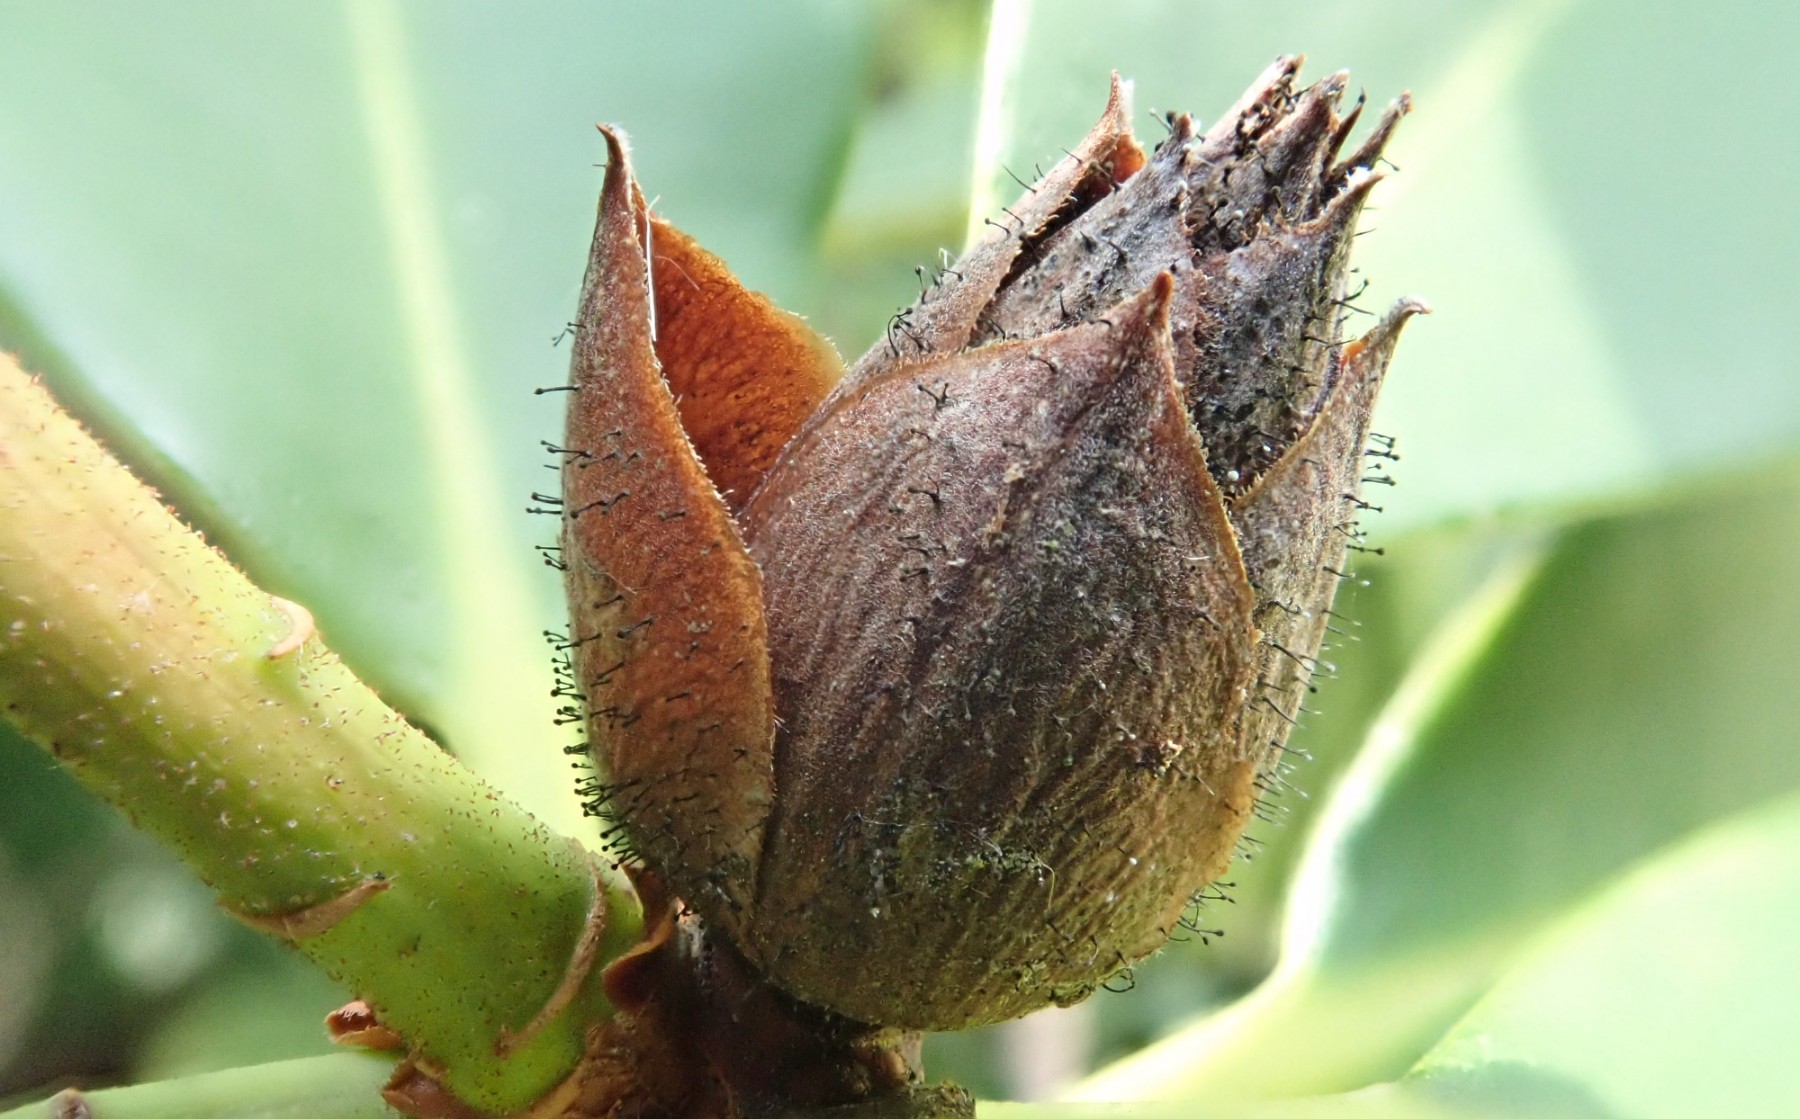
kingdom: Fungi
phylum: Ascomycota
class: Dothideomycetes
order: Pleosporales
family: Melanommataceae
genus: Seifertia
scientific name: Seifertia azaleae
